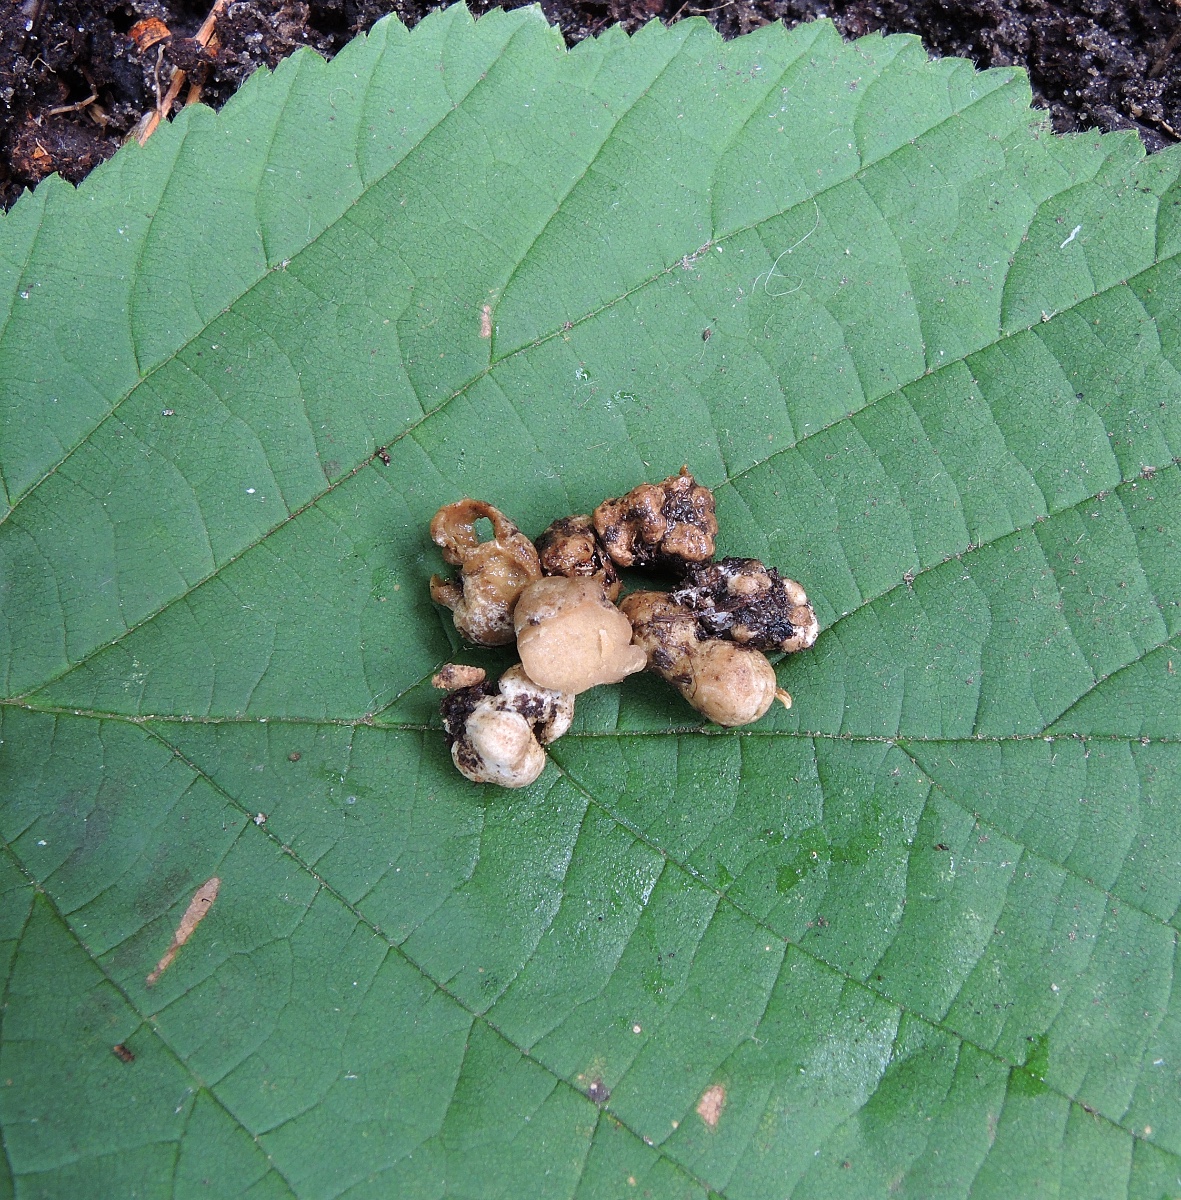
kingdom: Fungi
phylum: Glomeromycota
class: Glomeromycetes
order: Glomerales
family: Glomeraceae
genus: Glomus
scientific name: Glomus microcarpum
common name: Small-spored pea truffle
